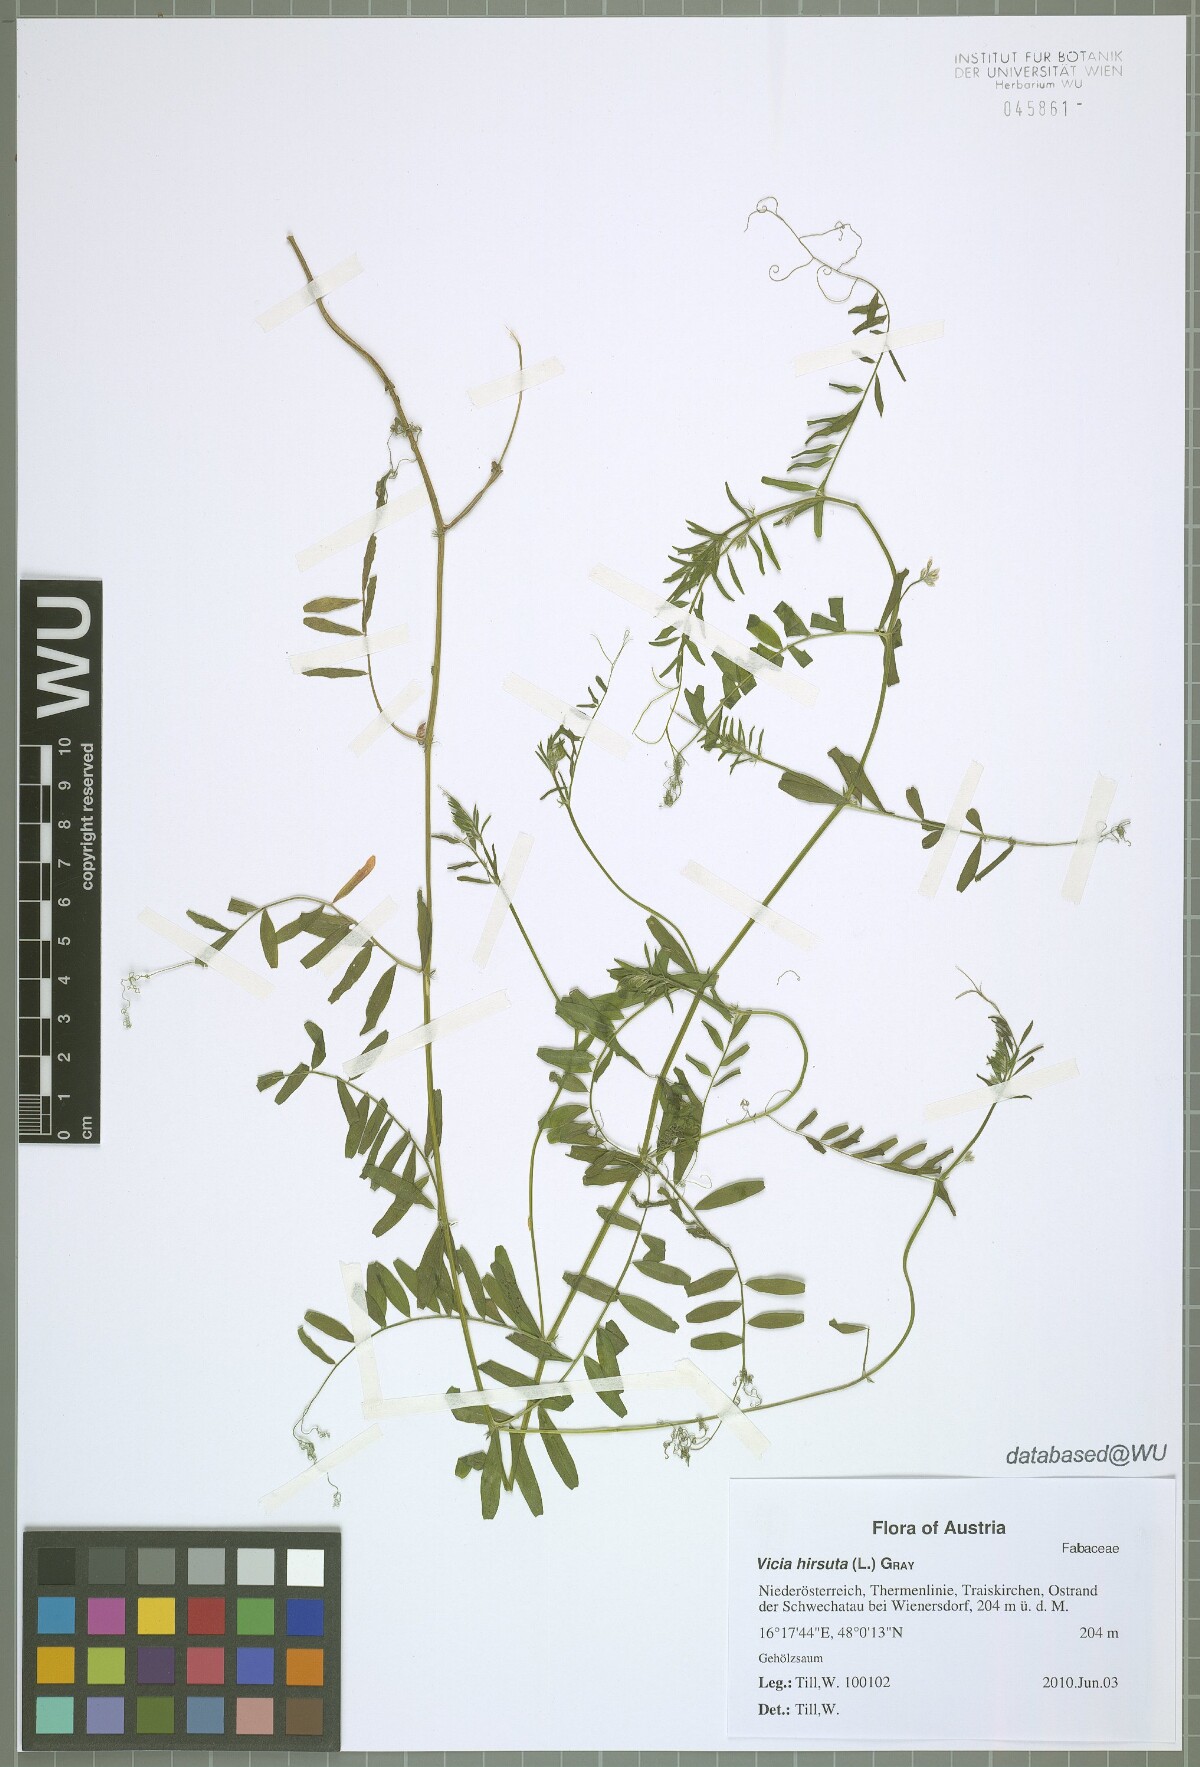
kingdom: Plantae
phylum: Tracheophyta
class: Magnoliopsida
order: Fabales
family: Fabaceae
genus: Vicia
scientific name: Vicia hirsuta
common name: Tiny vetch
